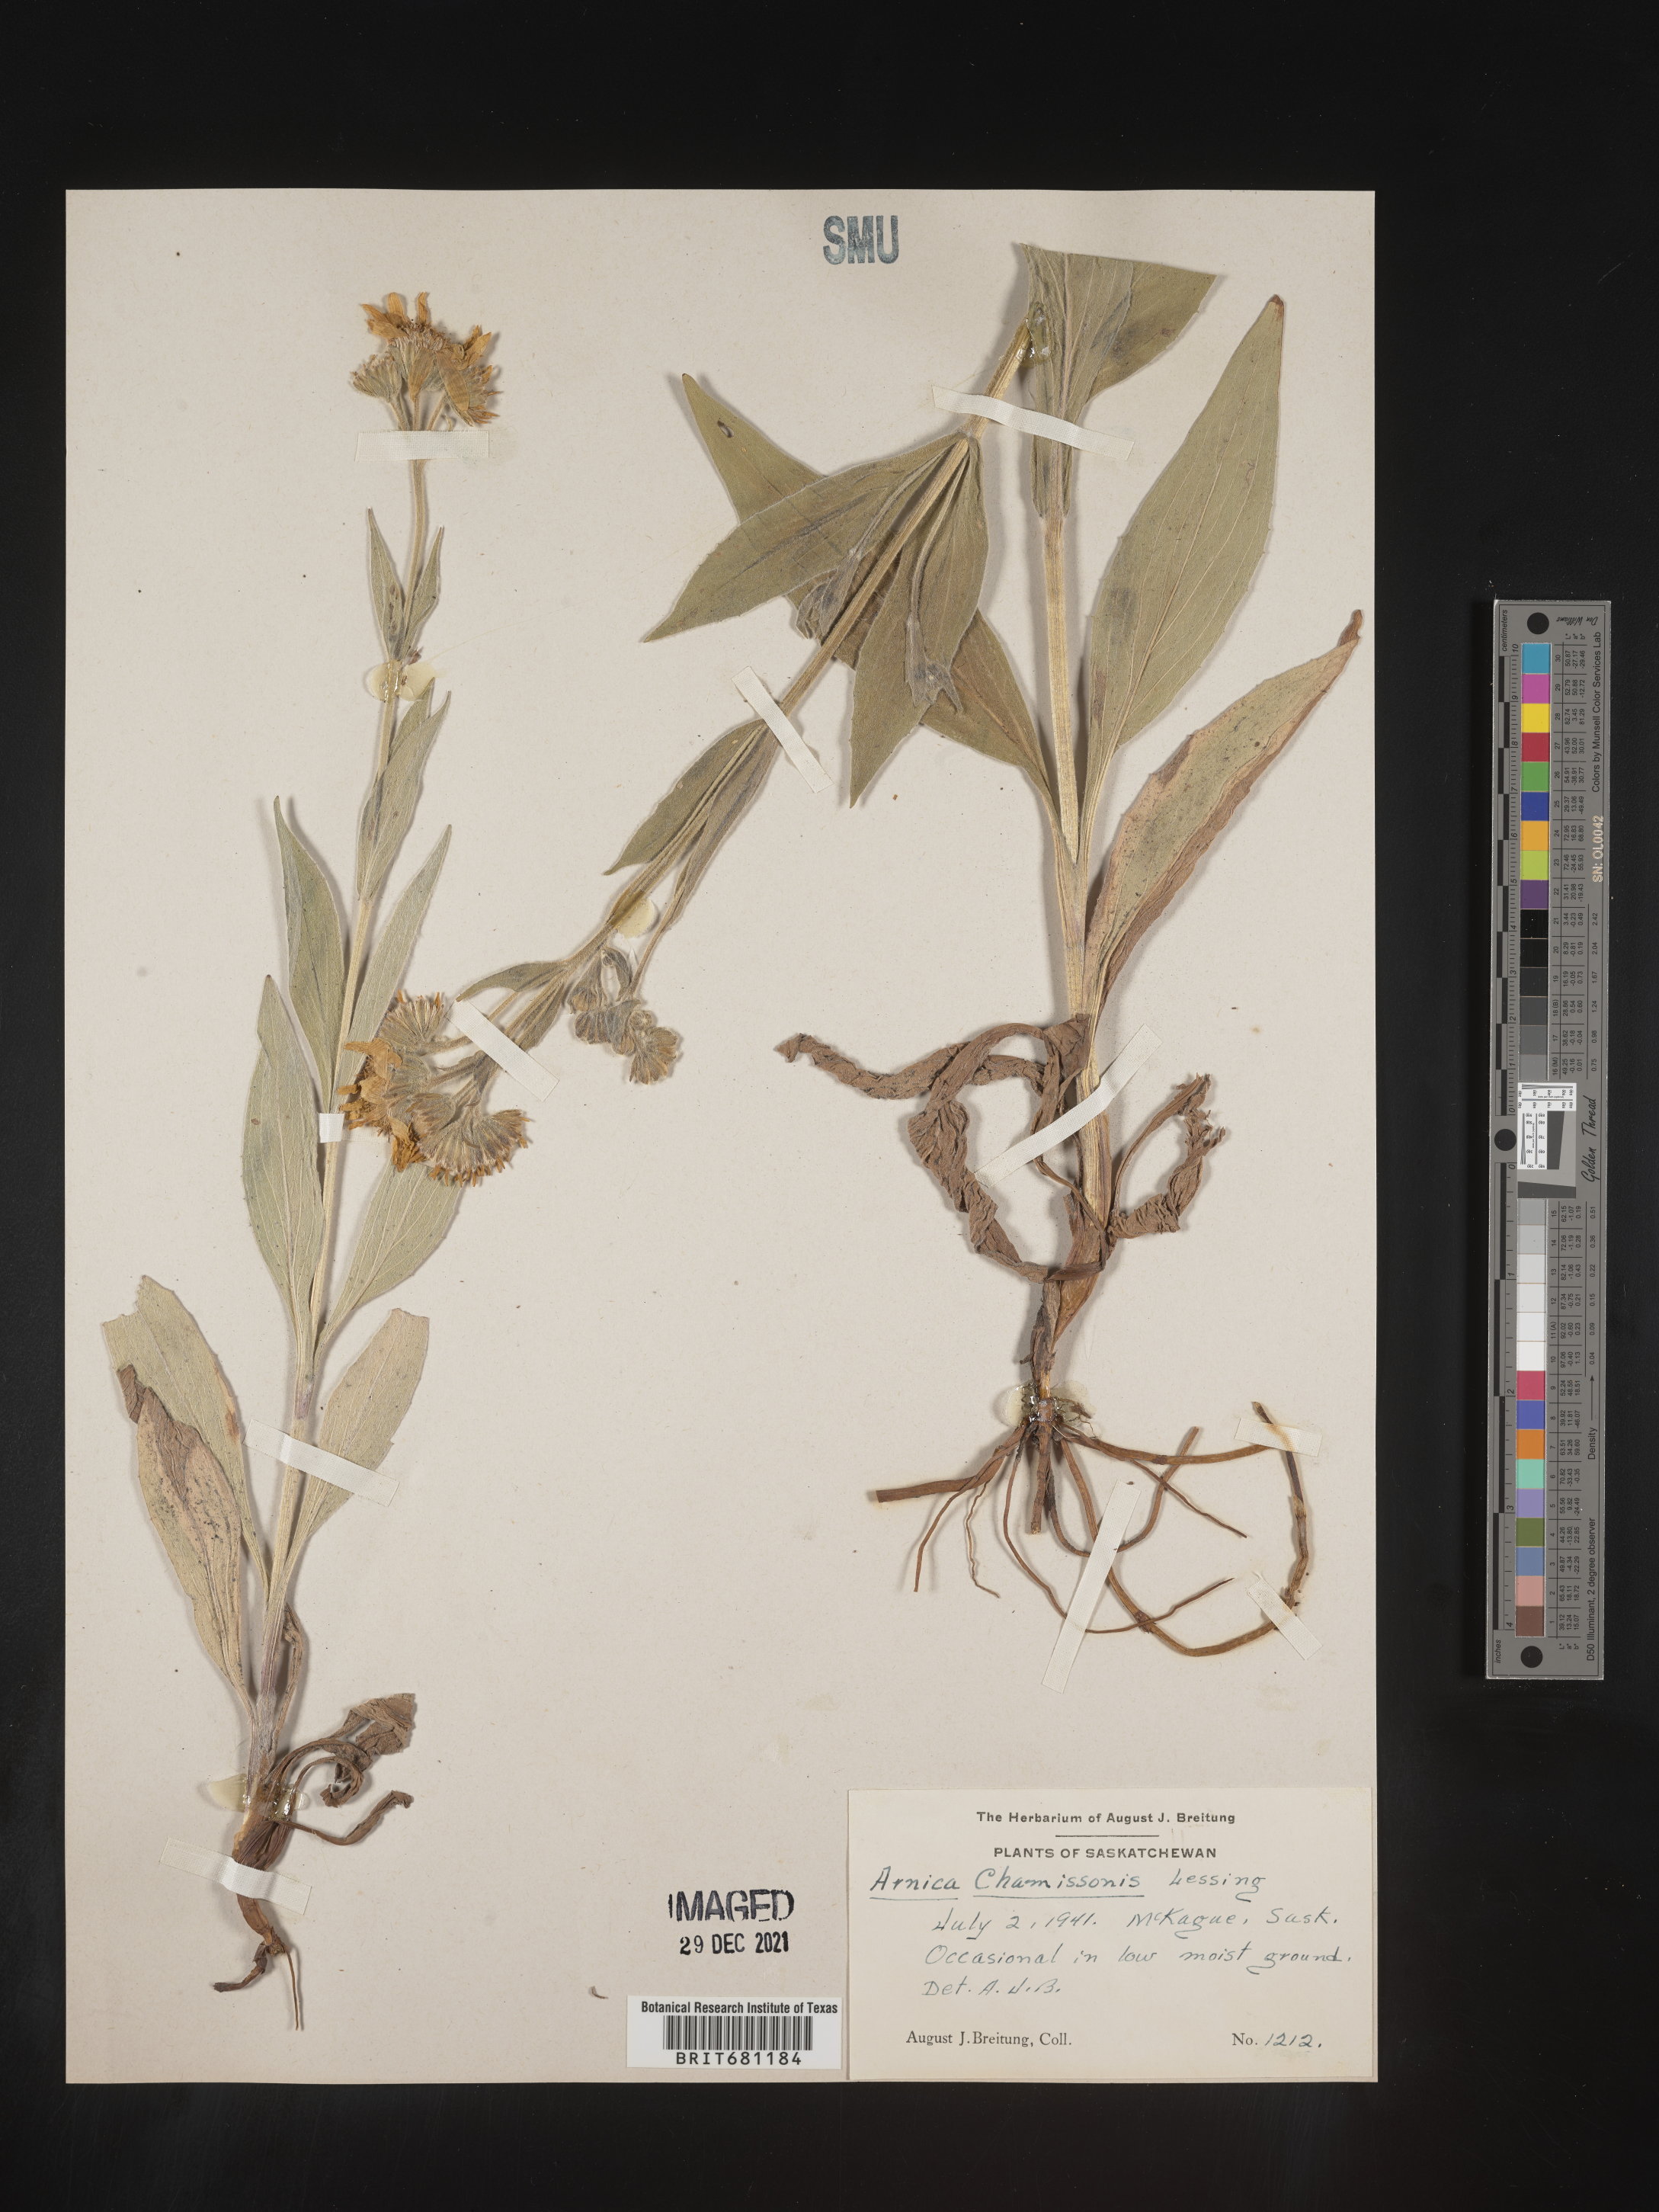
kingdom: Plantae
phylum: Tracheophyta
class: Magnoliopsida
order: Asterales
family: Asteraceae
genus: Arnica
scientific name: Arnica chamissonis
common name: Leafy arnica
